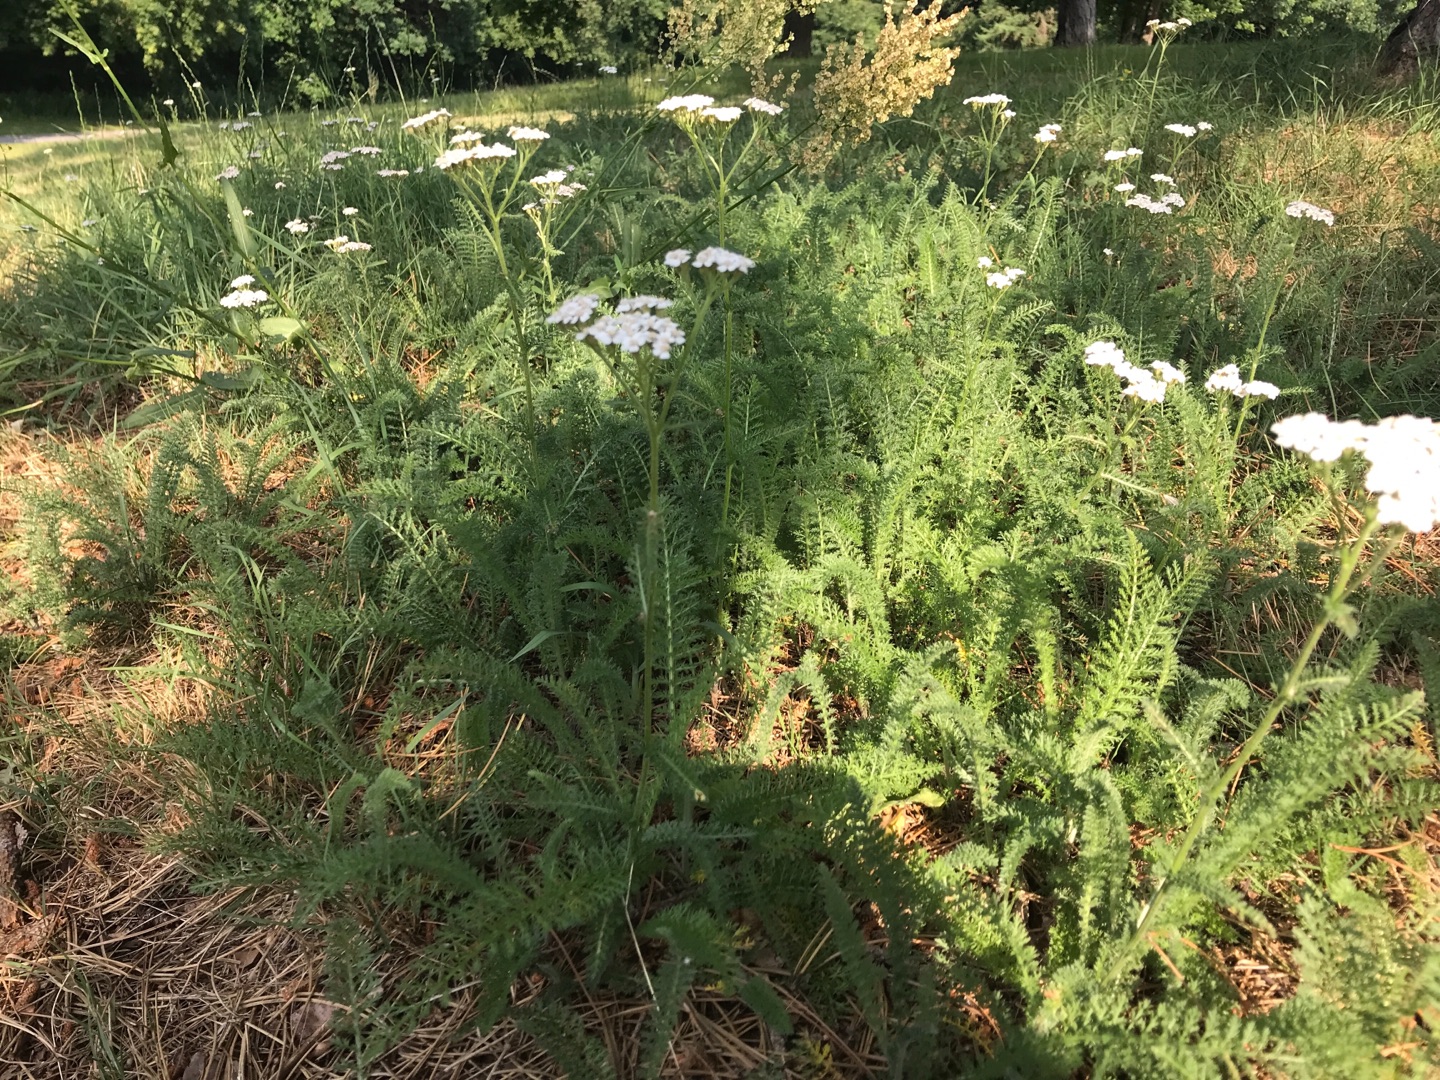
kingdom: Plantae
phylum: Tracheophyta
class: Magnoliopsida
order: Asterales
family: Asteraceae
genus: Achillea
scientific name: Achillea millefolium
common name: Almindelig røllike
